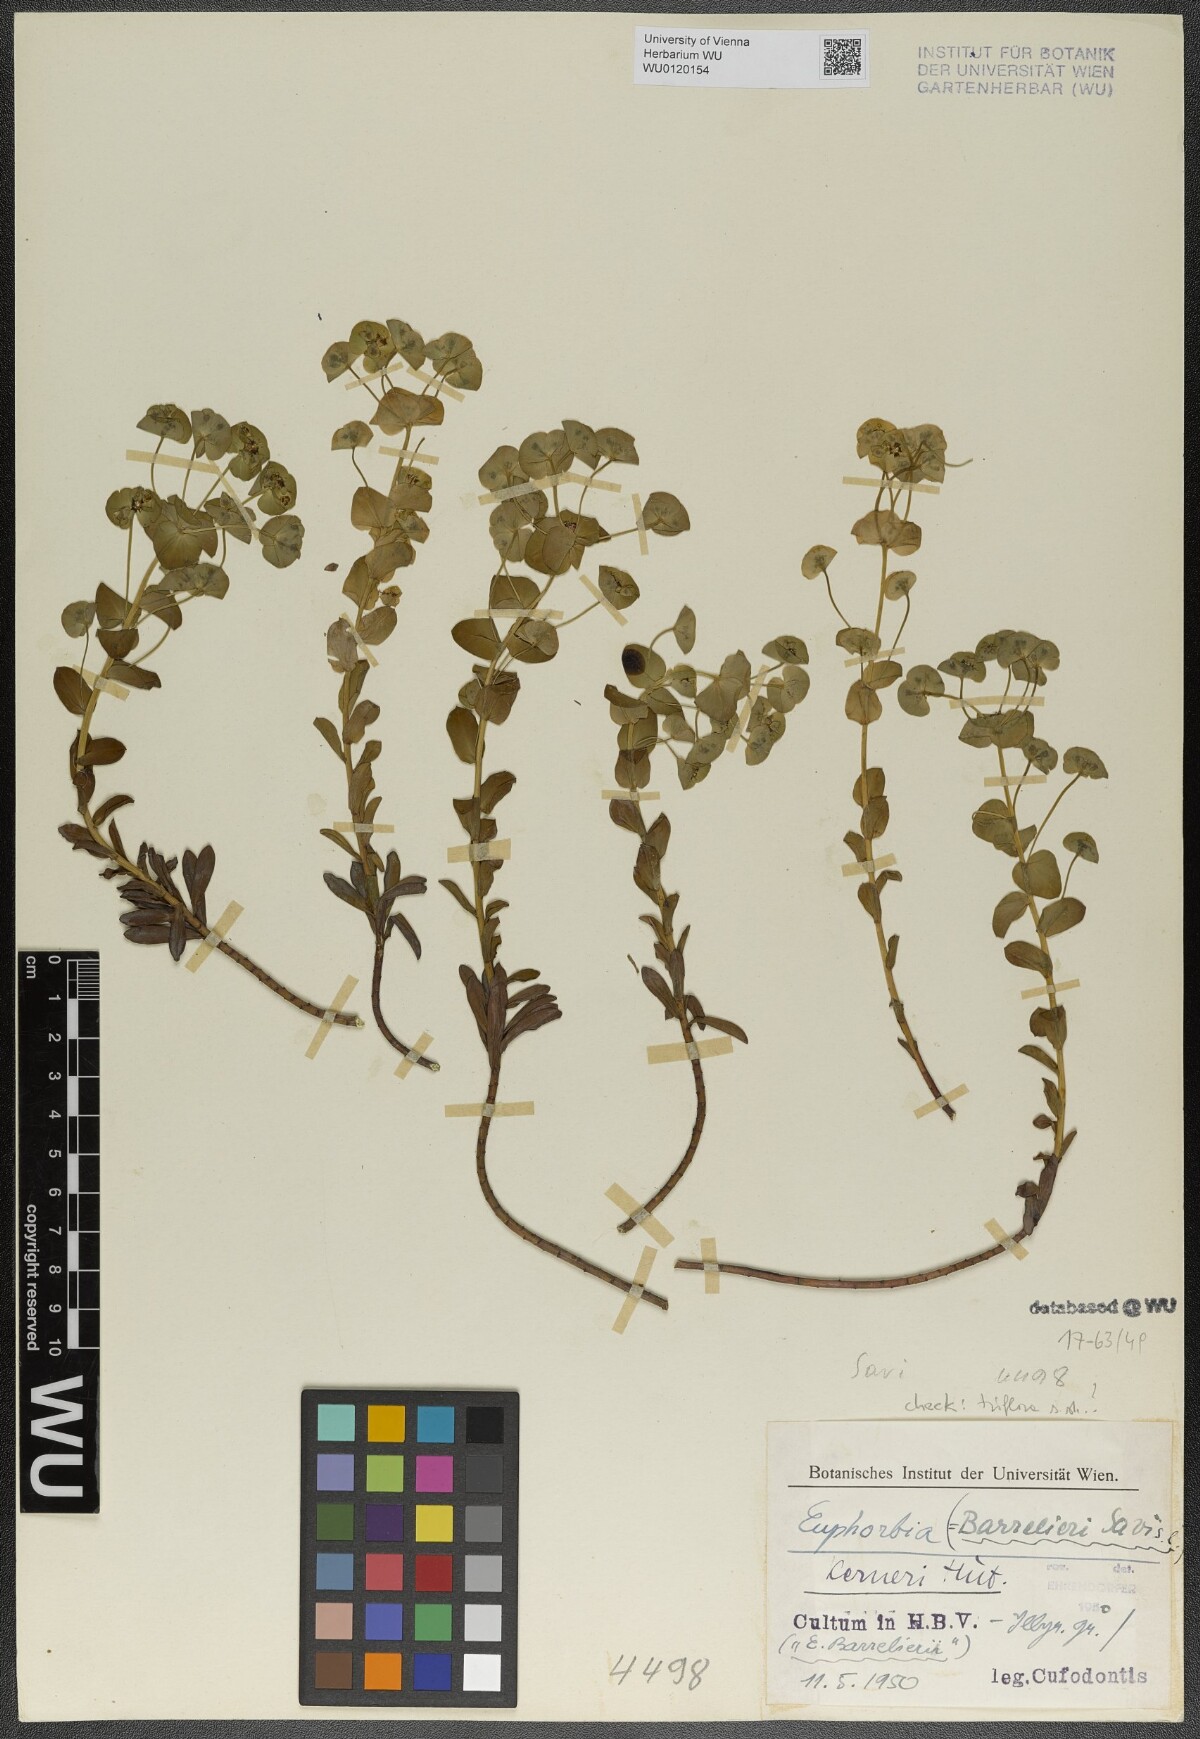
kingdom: Plantae
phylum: Tracheophyta
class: Magnoliopsida
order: Malpighiales
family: Euphorbiaceae
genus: Euphorbia
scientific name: Euphorbia kerneri
